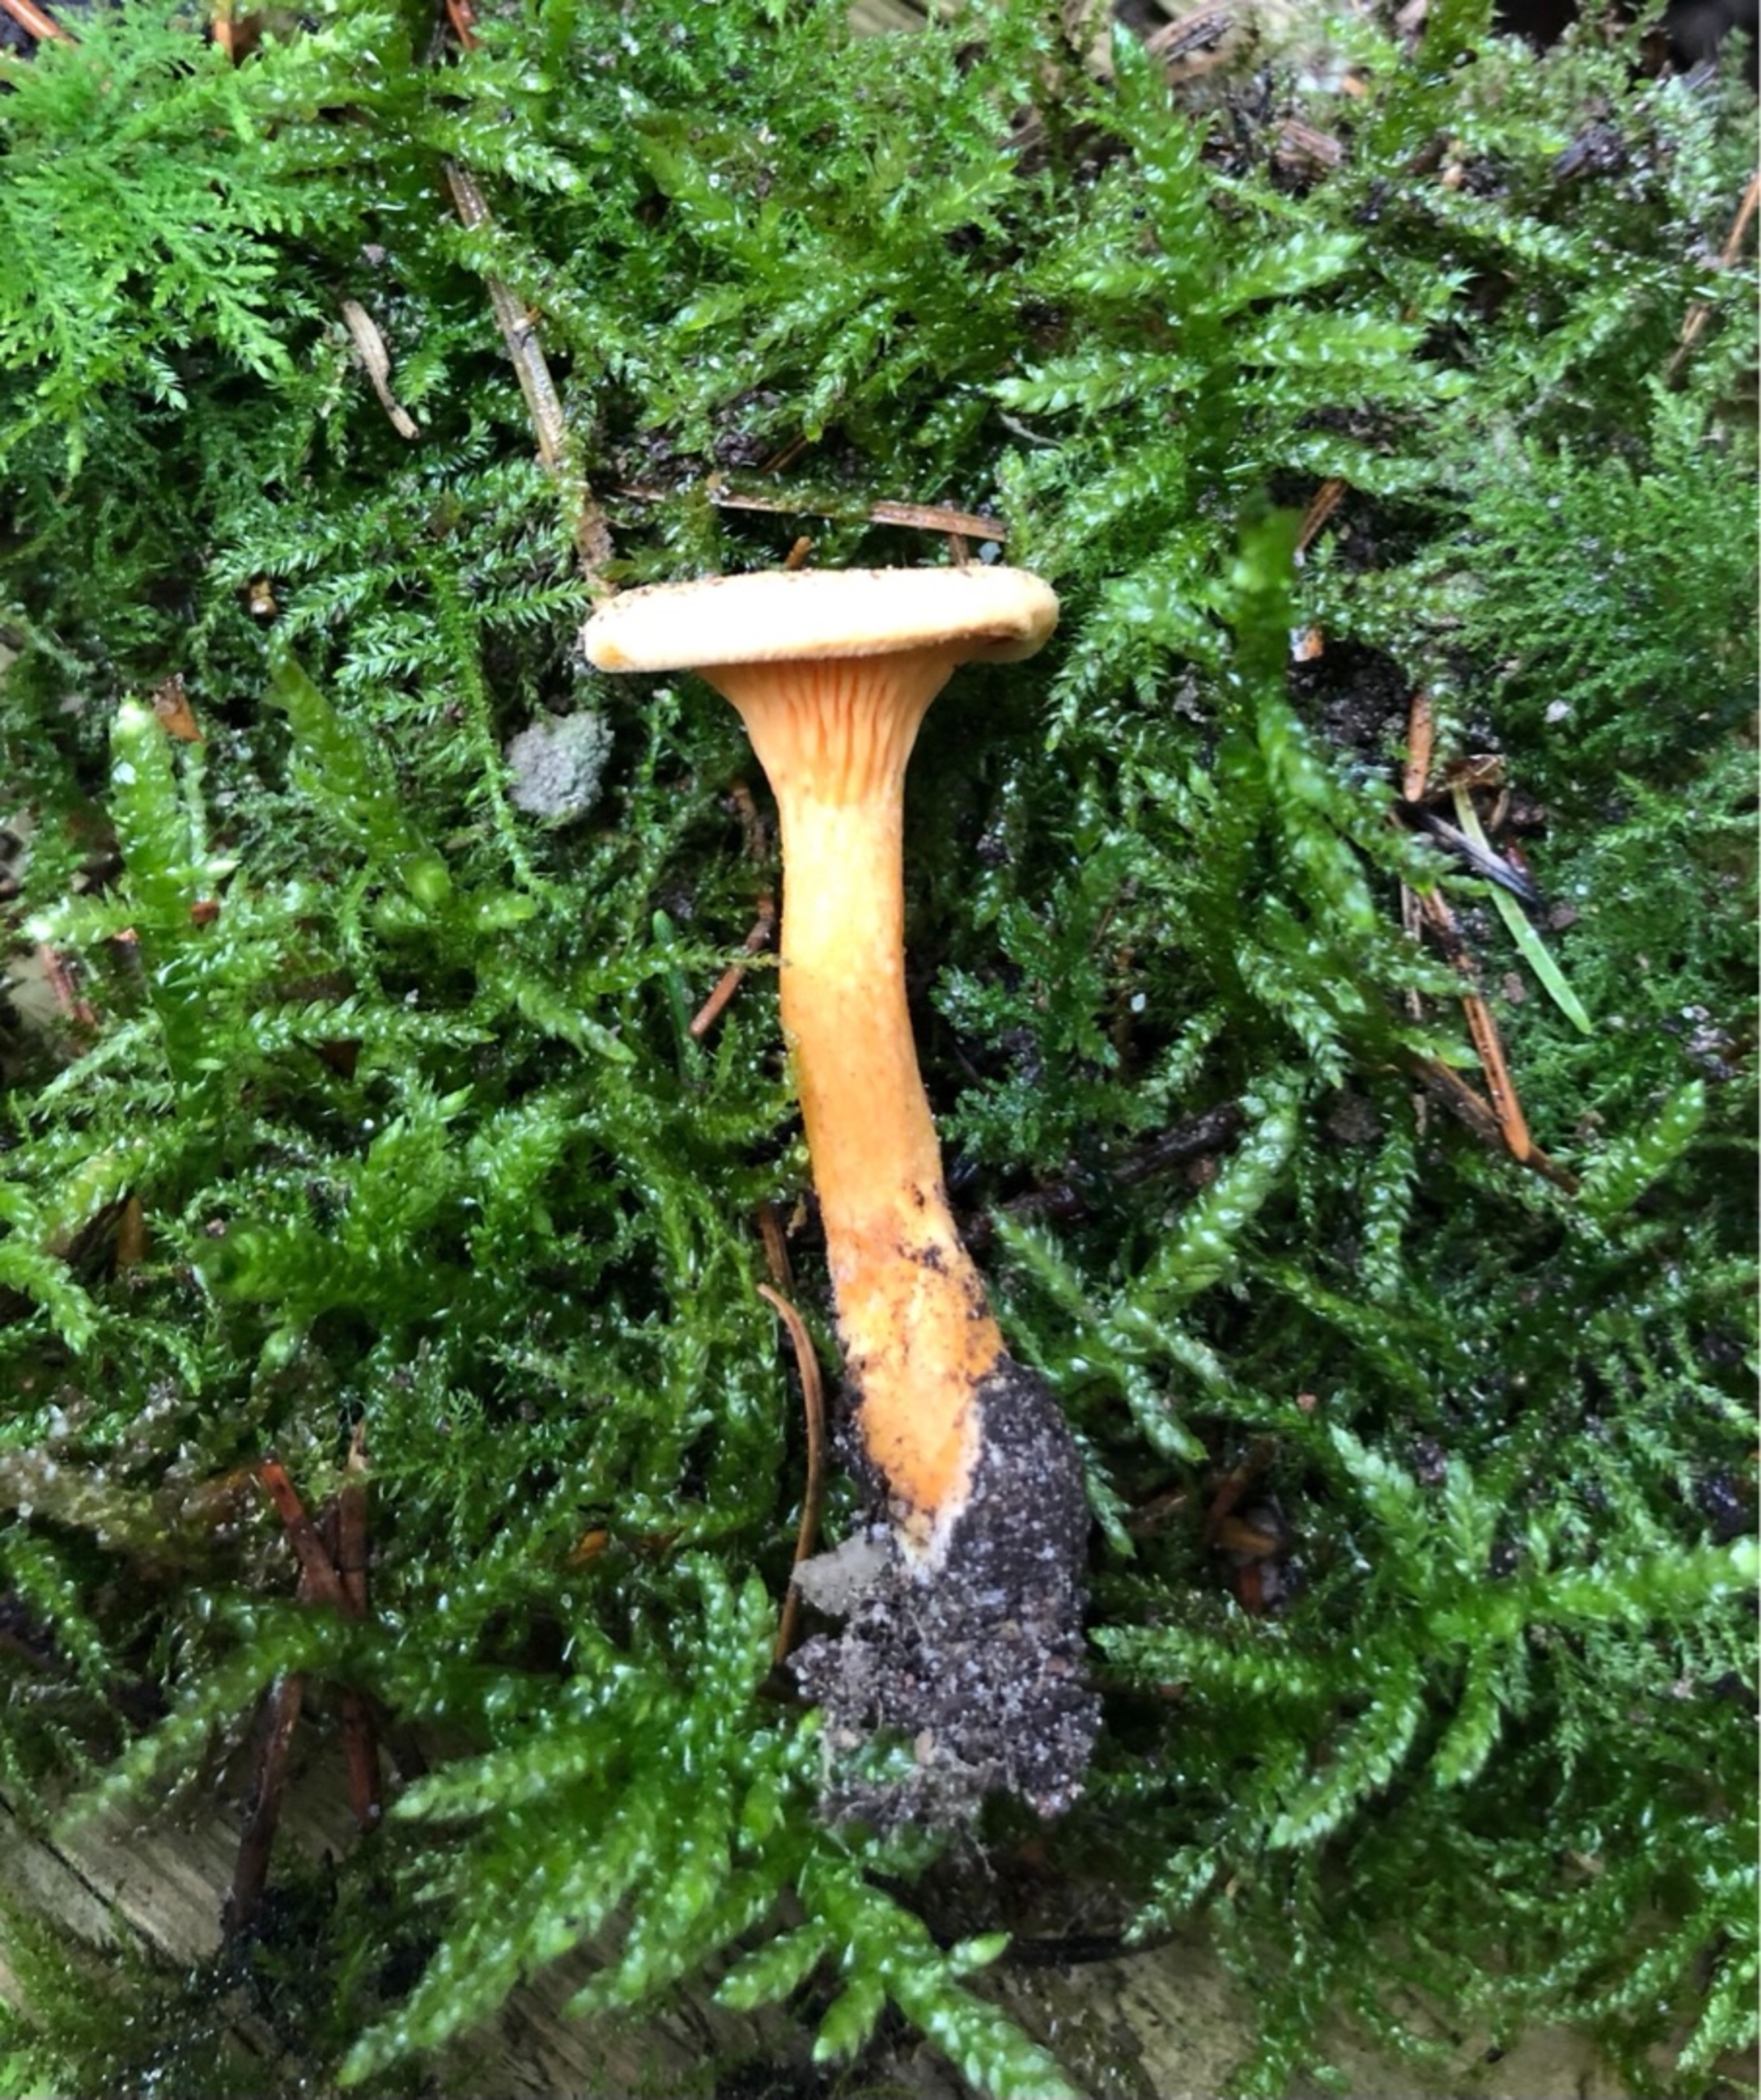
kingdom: Fungi
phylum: Basidiomycota
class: Agaricomycetes
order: Boletales
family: Hygrophoropsidaceae
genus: Hygrophoropsis
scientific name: Hygrophoropsis aurantiaca
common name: Almindelig orangekantarel
